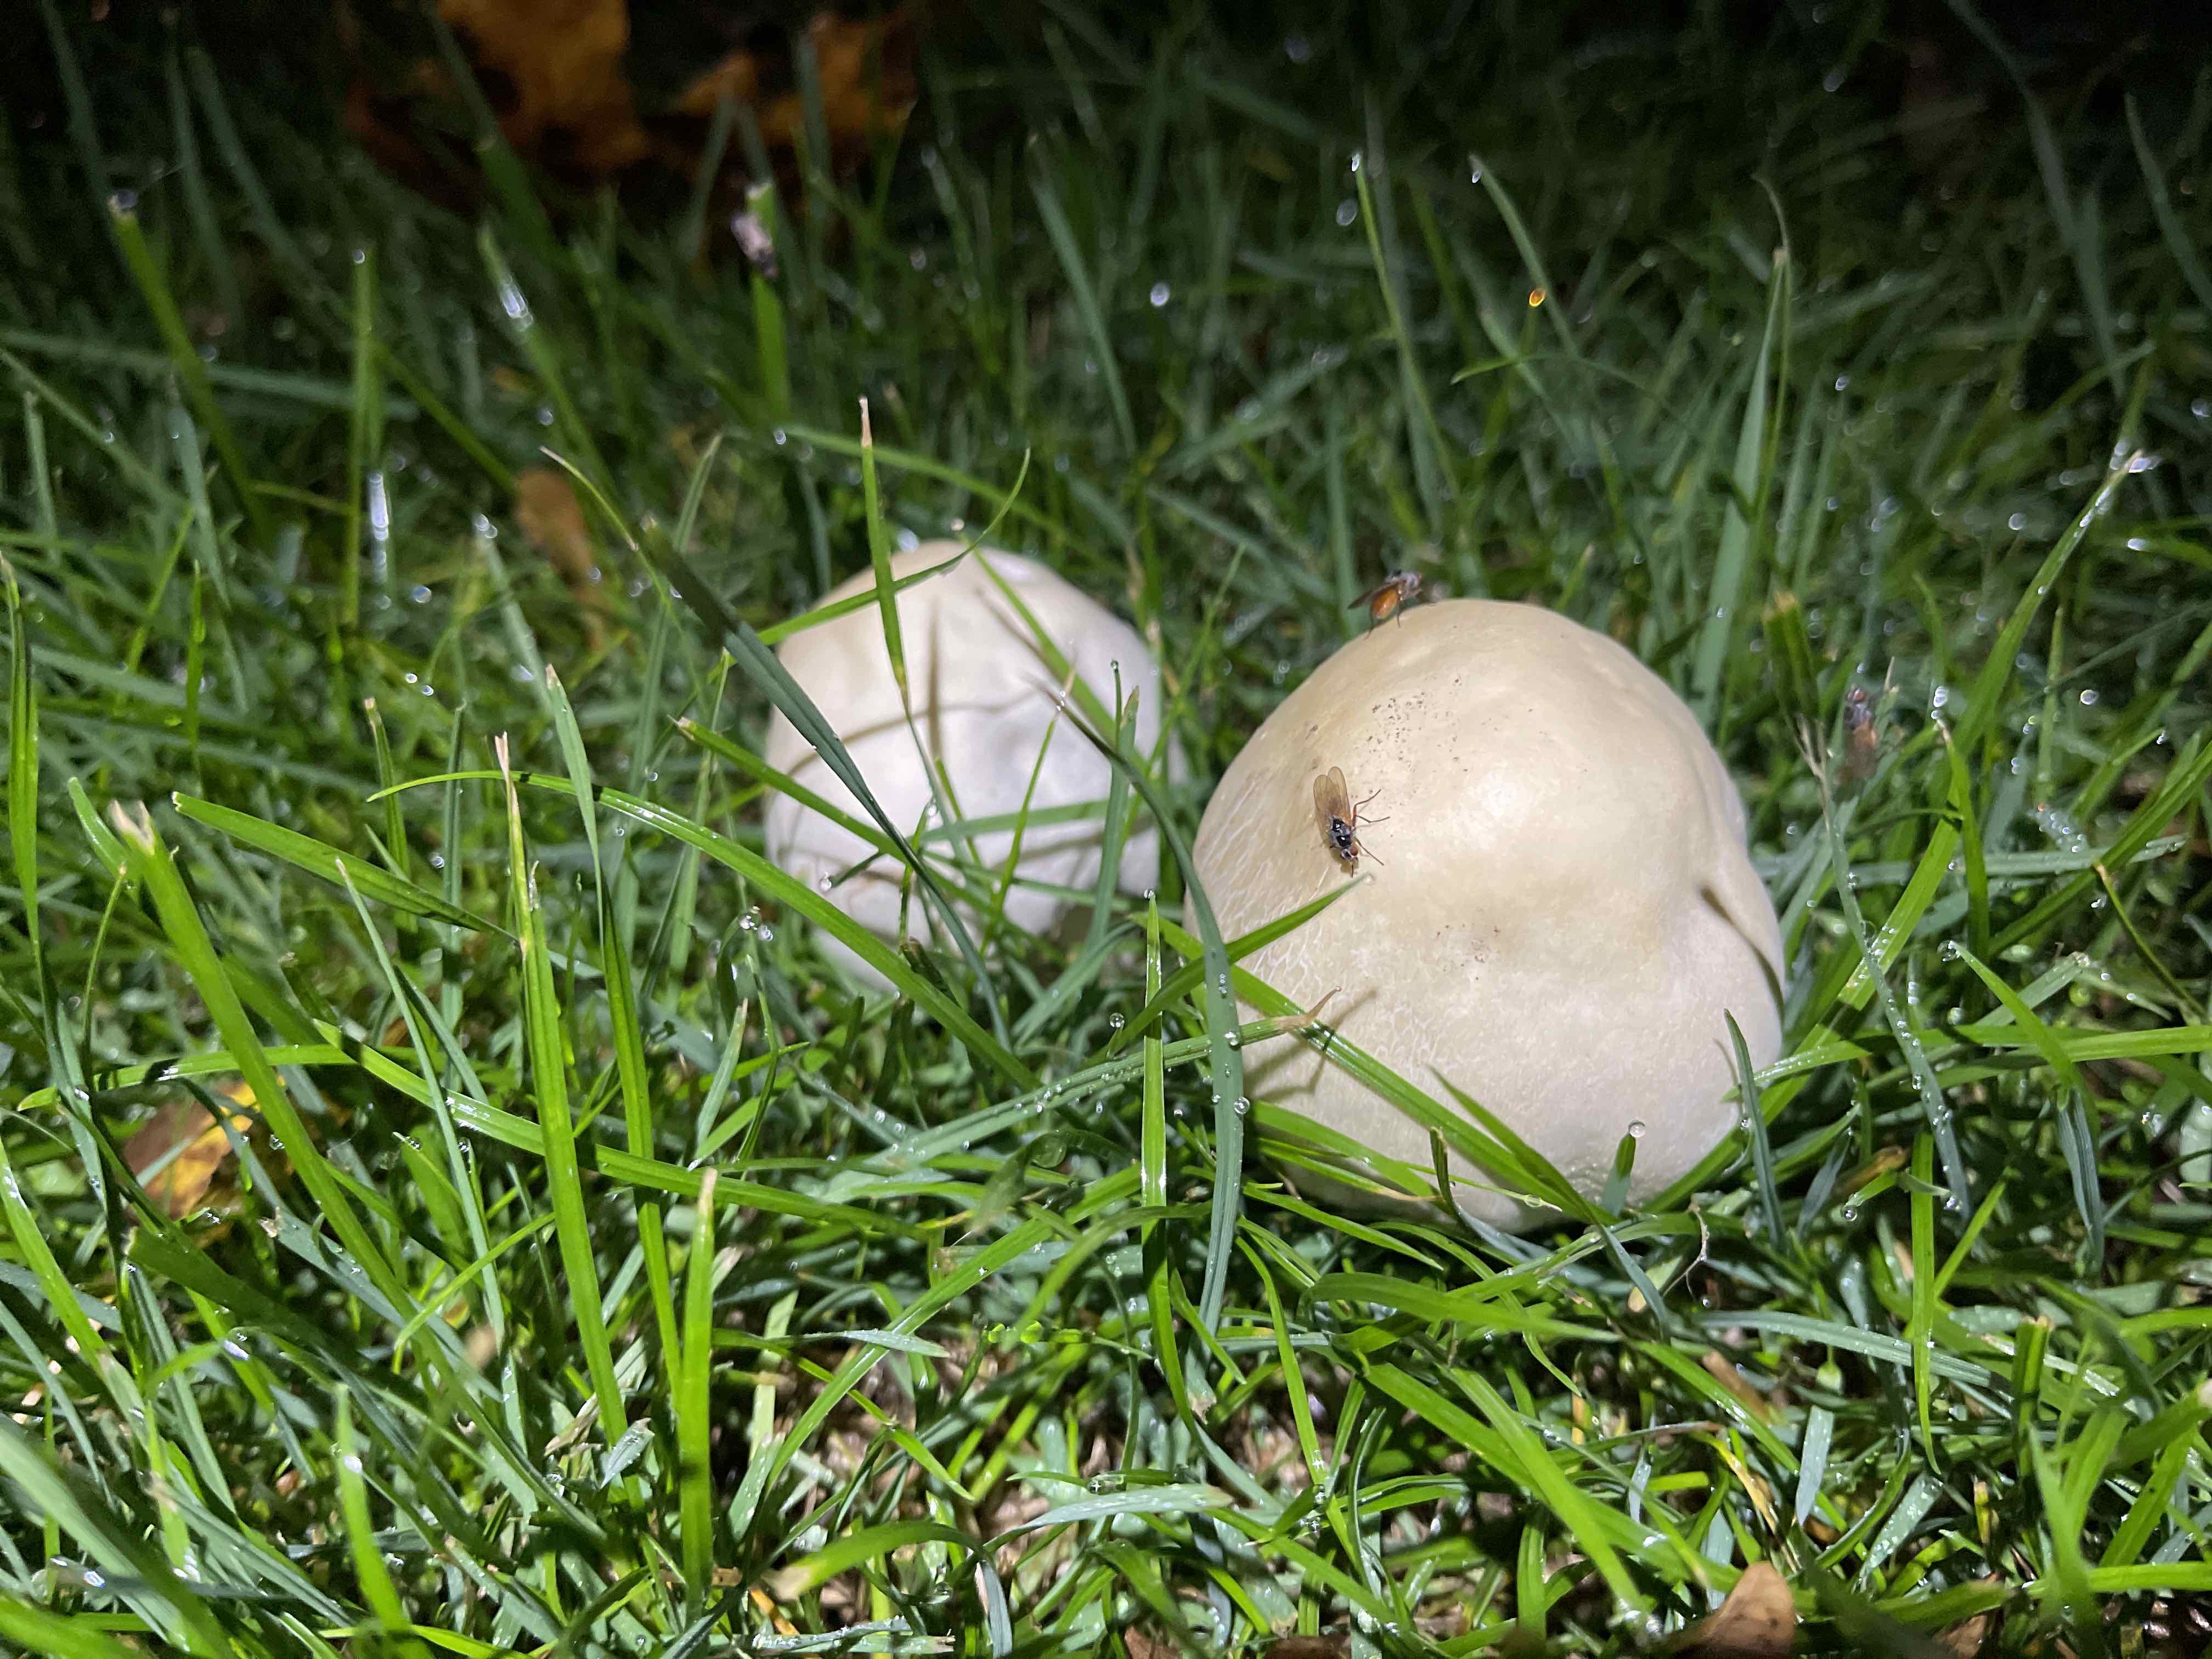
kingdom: Fungi
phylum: Basidiomycota
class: Agaricomycetes
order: Agaricales
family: Agaricaceae
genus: Agaricus
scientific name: Agaricus
